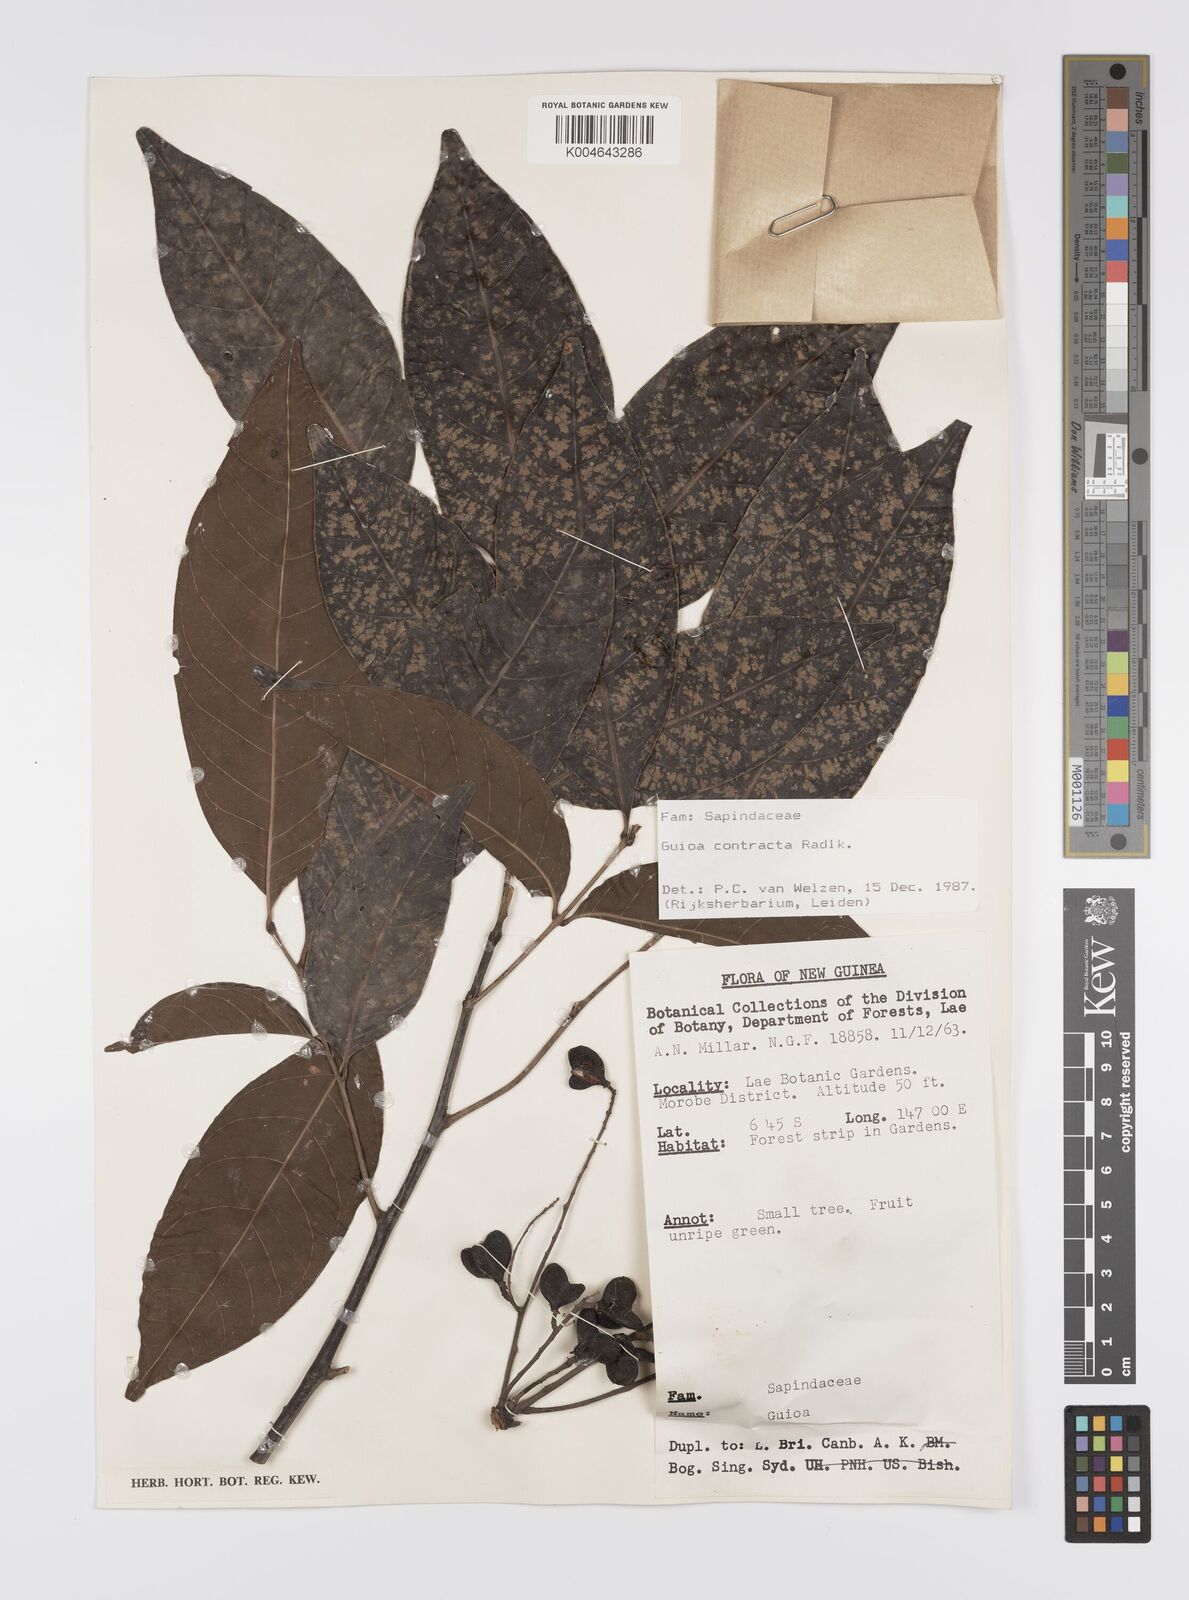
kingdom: Plantae
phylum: Tracheophyta
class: Magnoliopsida
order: Sapindales
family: Sapindaceae
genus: Guioa
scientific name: Guioa contracta
